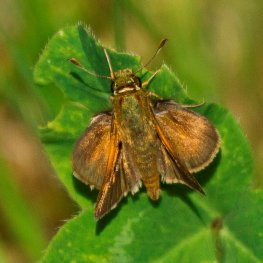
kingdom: Animalia
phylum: Arthropoda
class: Insecta
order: Lepidoptera
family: Hesperiidae
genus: Polites
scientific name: Polites themistocles
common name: Tawny-edged Skipper
